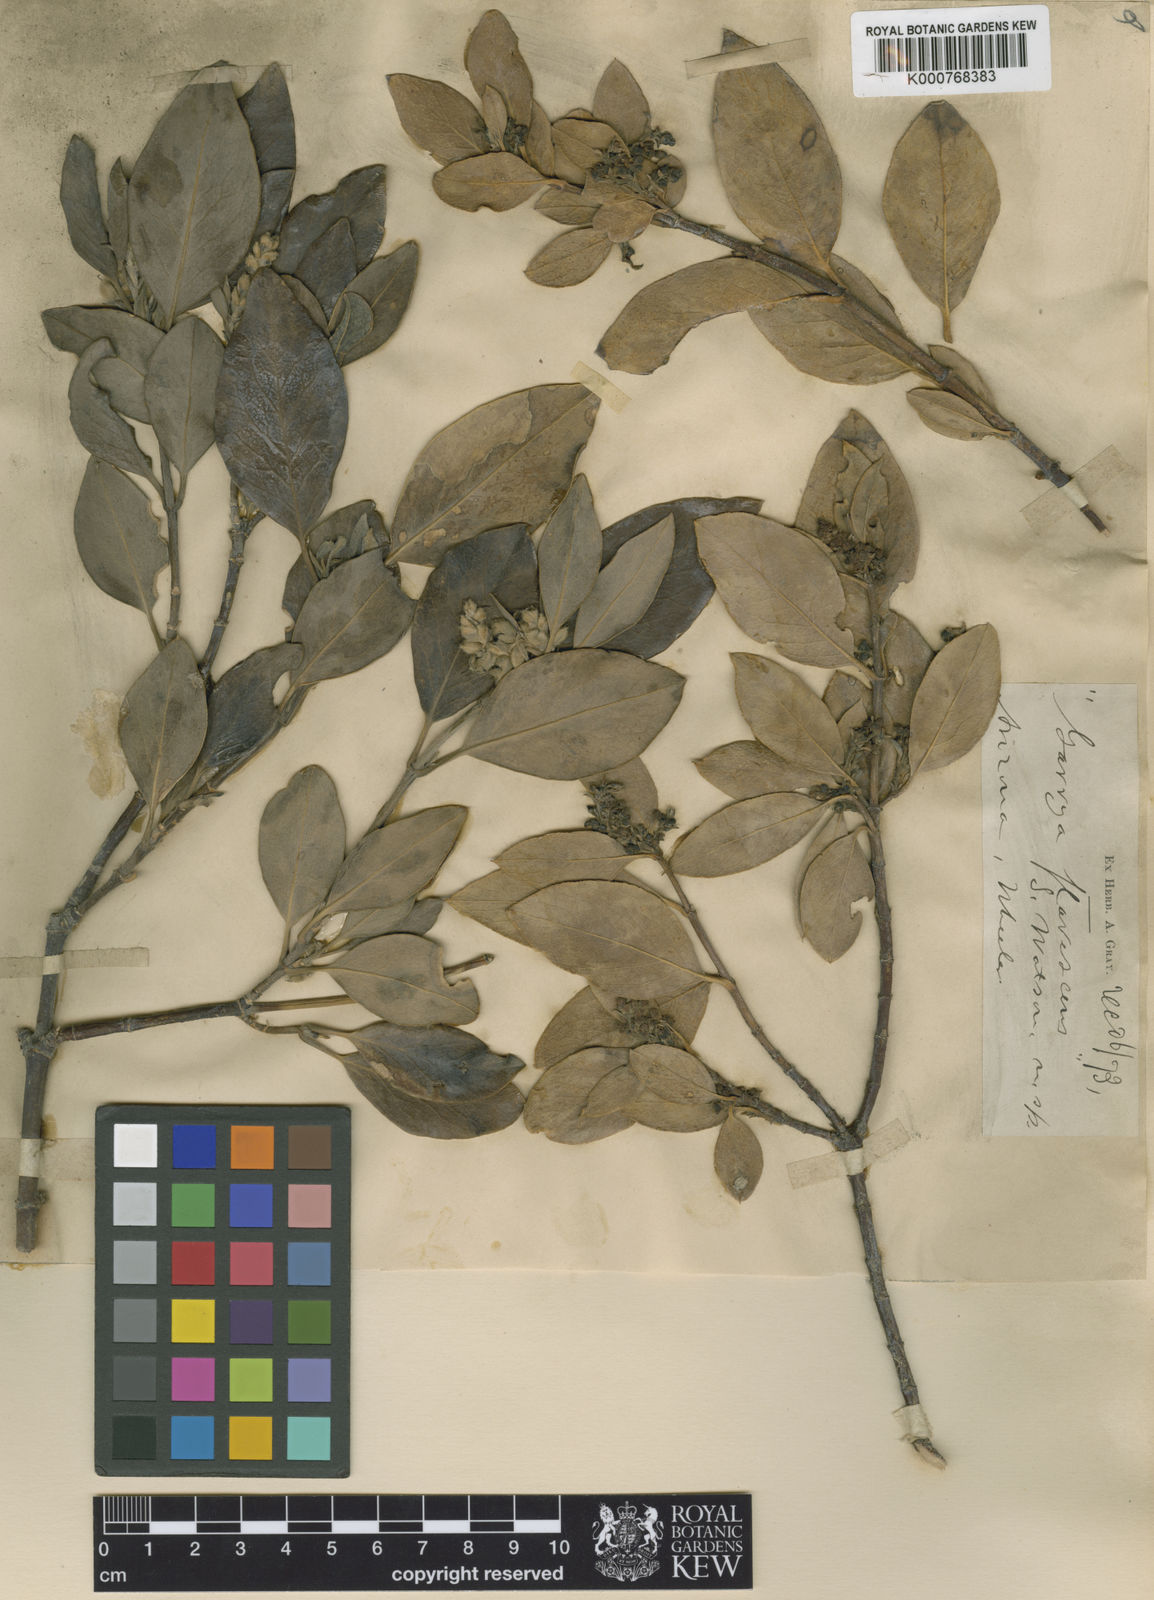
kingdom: Plantae
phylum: Tracheophyta
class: Magnoliopsida
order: Garryales
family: Garryaceae
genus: Garrya
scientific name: Garrya flavescens
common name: Ashy silk-tassel
